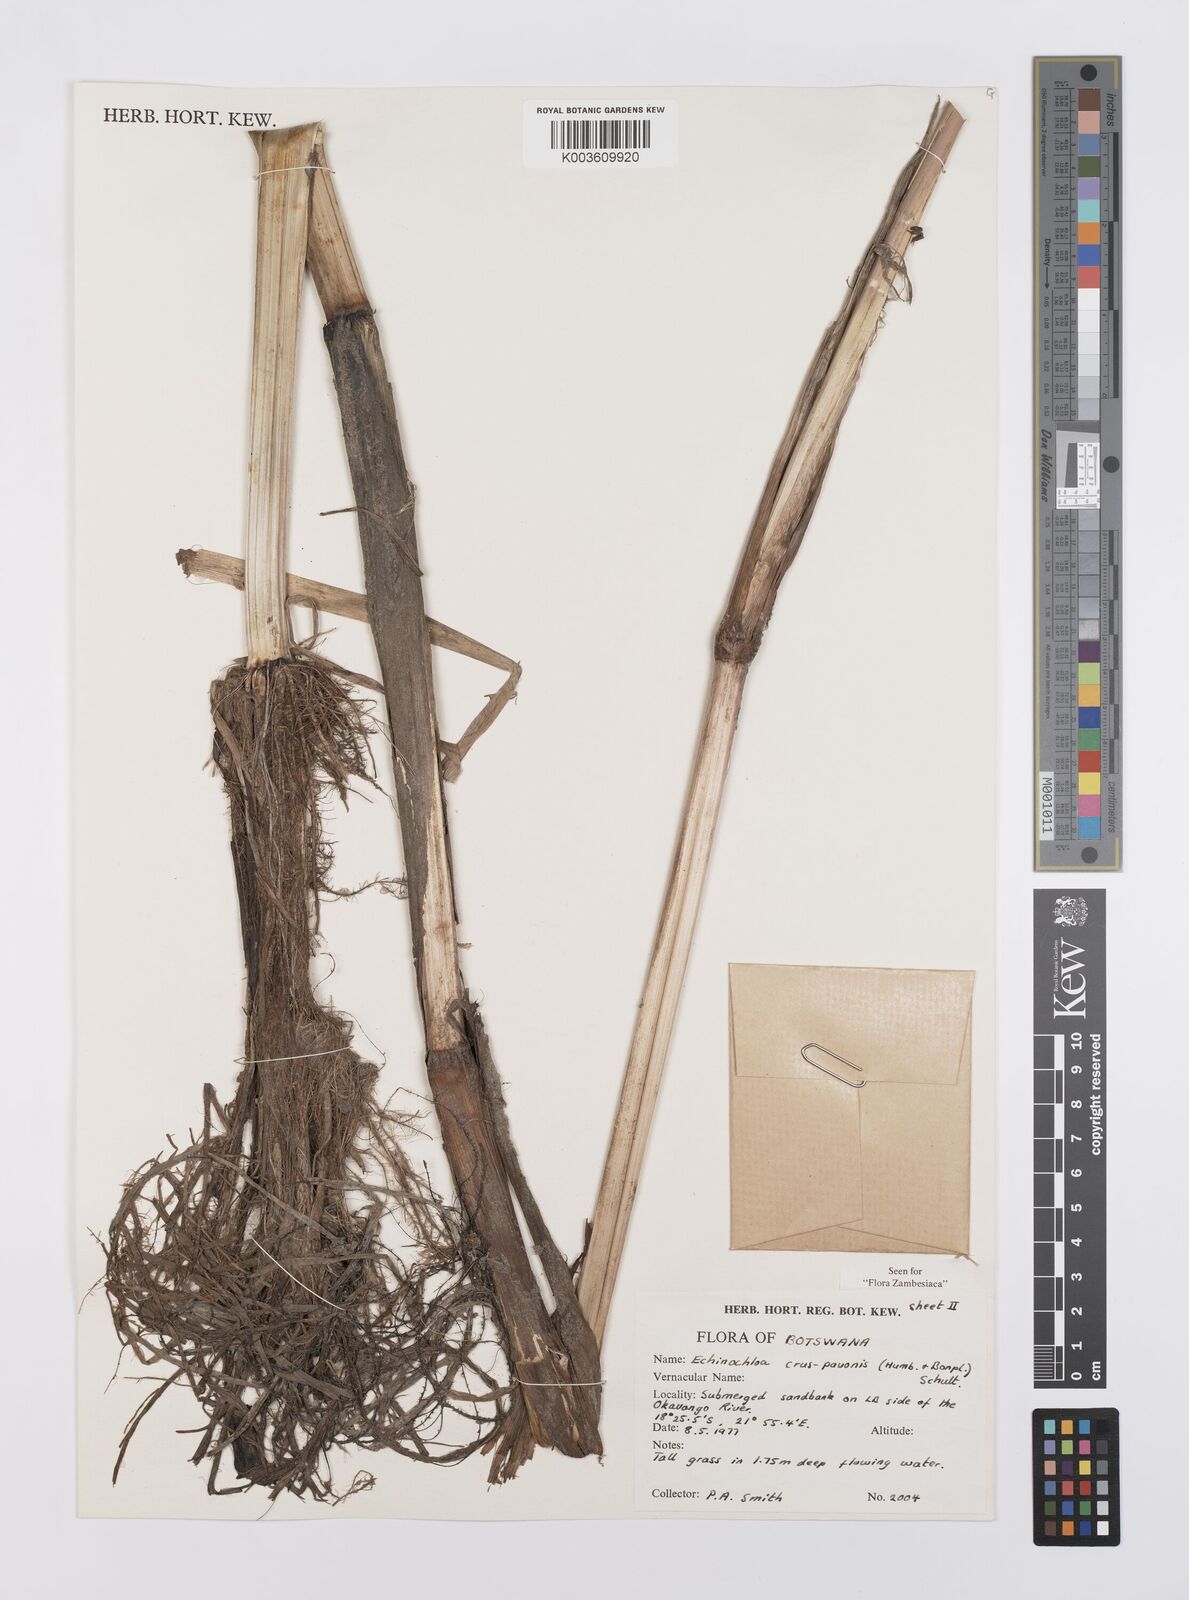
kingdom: Plantae
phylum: Tracheophyta
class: Liliopsida
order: Poales
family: Poaceae
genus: Echinochloa
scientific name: Echinochloa crus-pavonis
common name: Gulf cockspur grass
